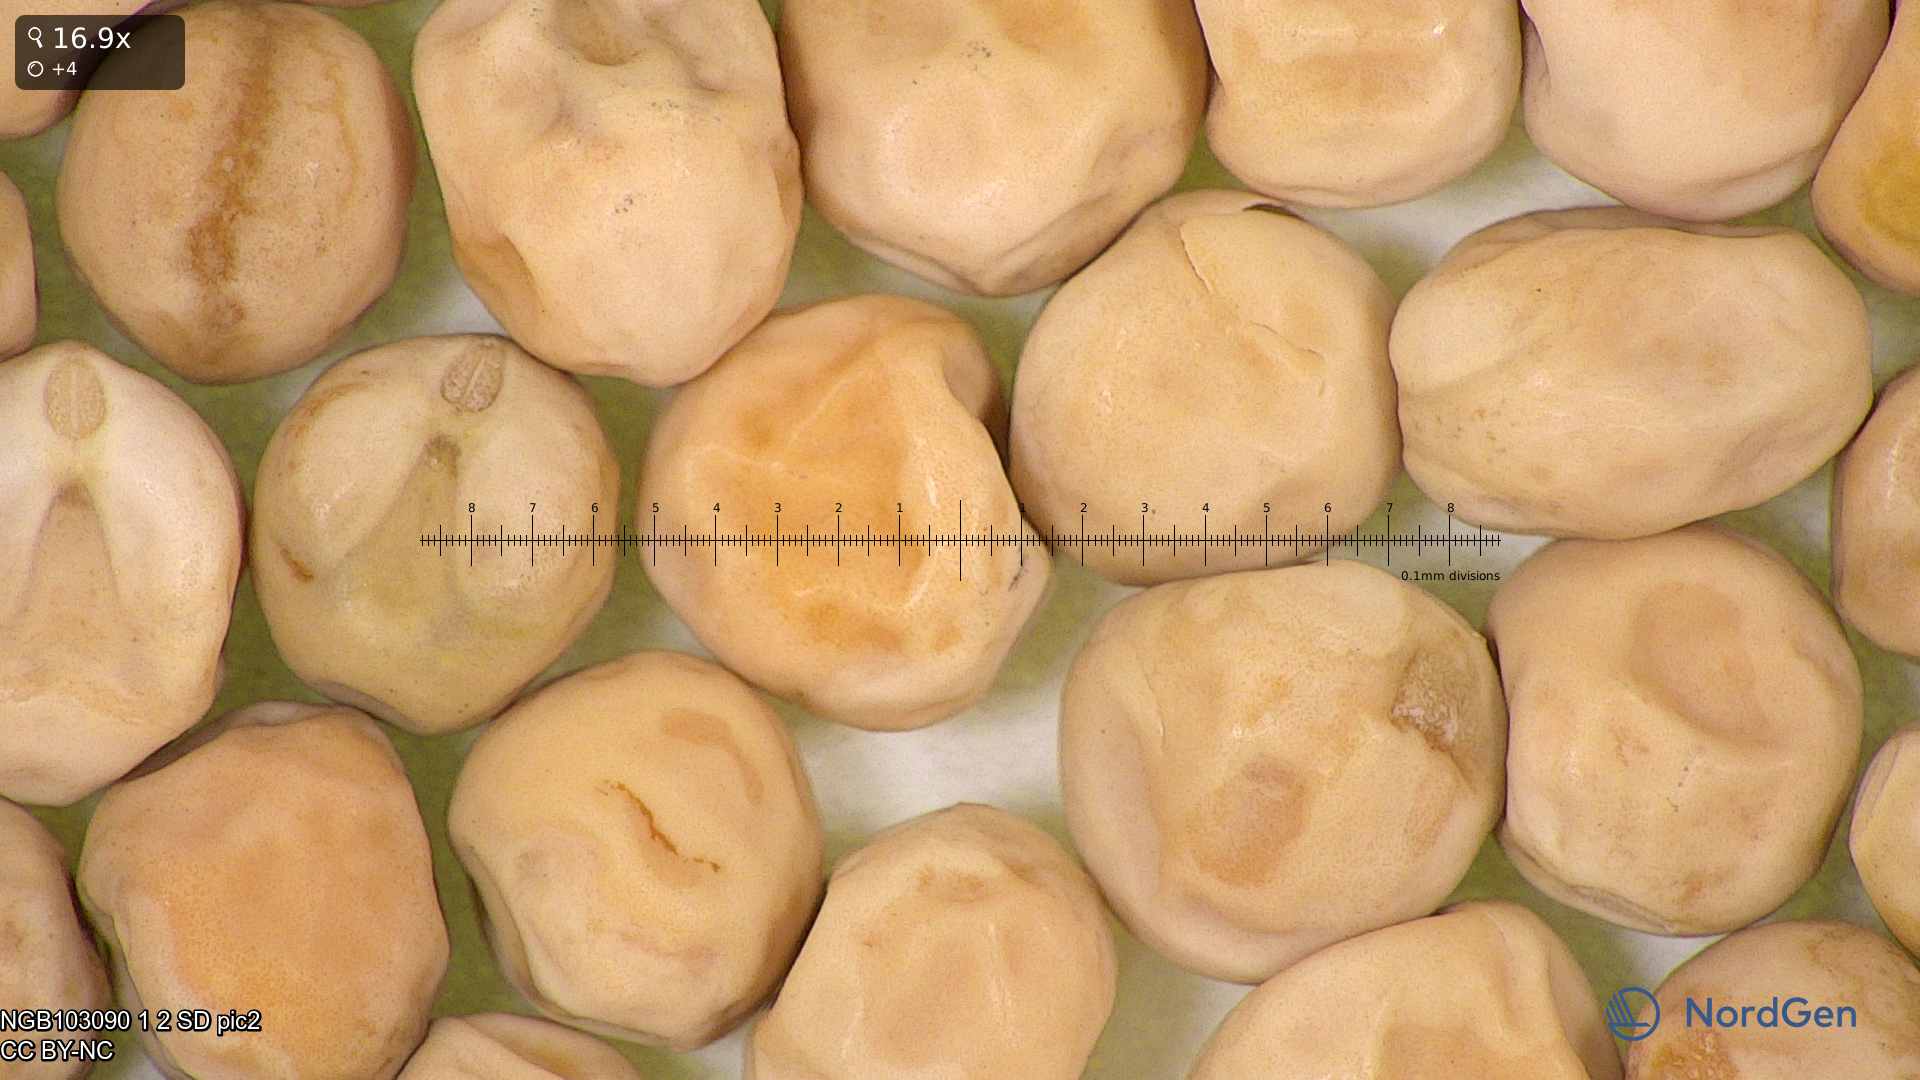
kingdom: Plantae
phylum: Tracheophyta
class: Magnoliopsida
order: Fabales
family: Fabaceae
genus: Lathyrus
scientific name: Lathyrus oleraceus
